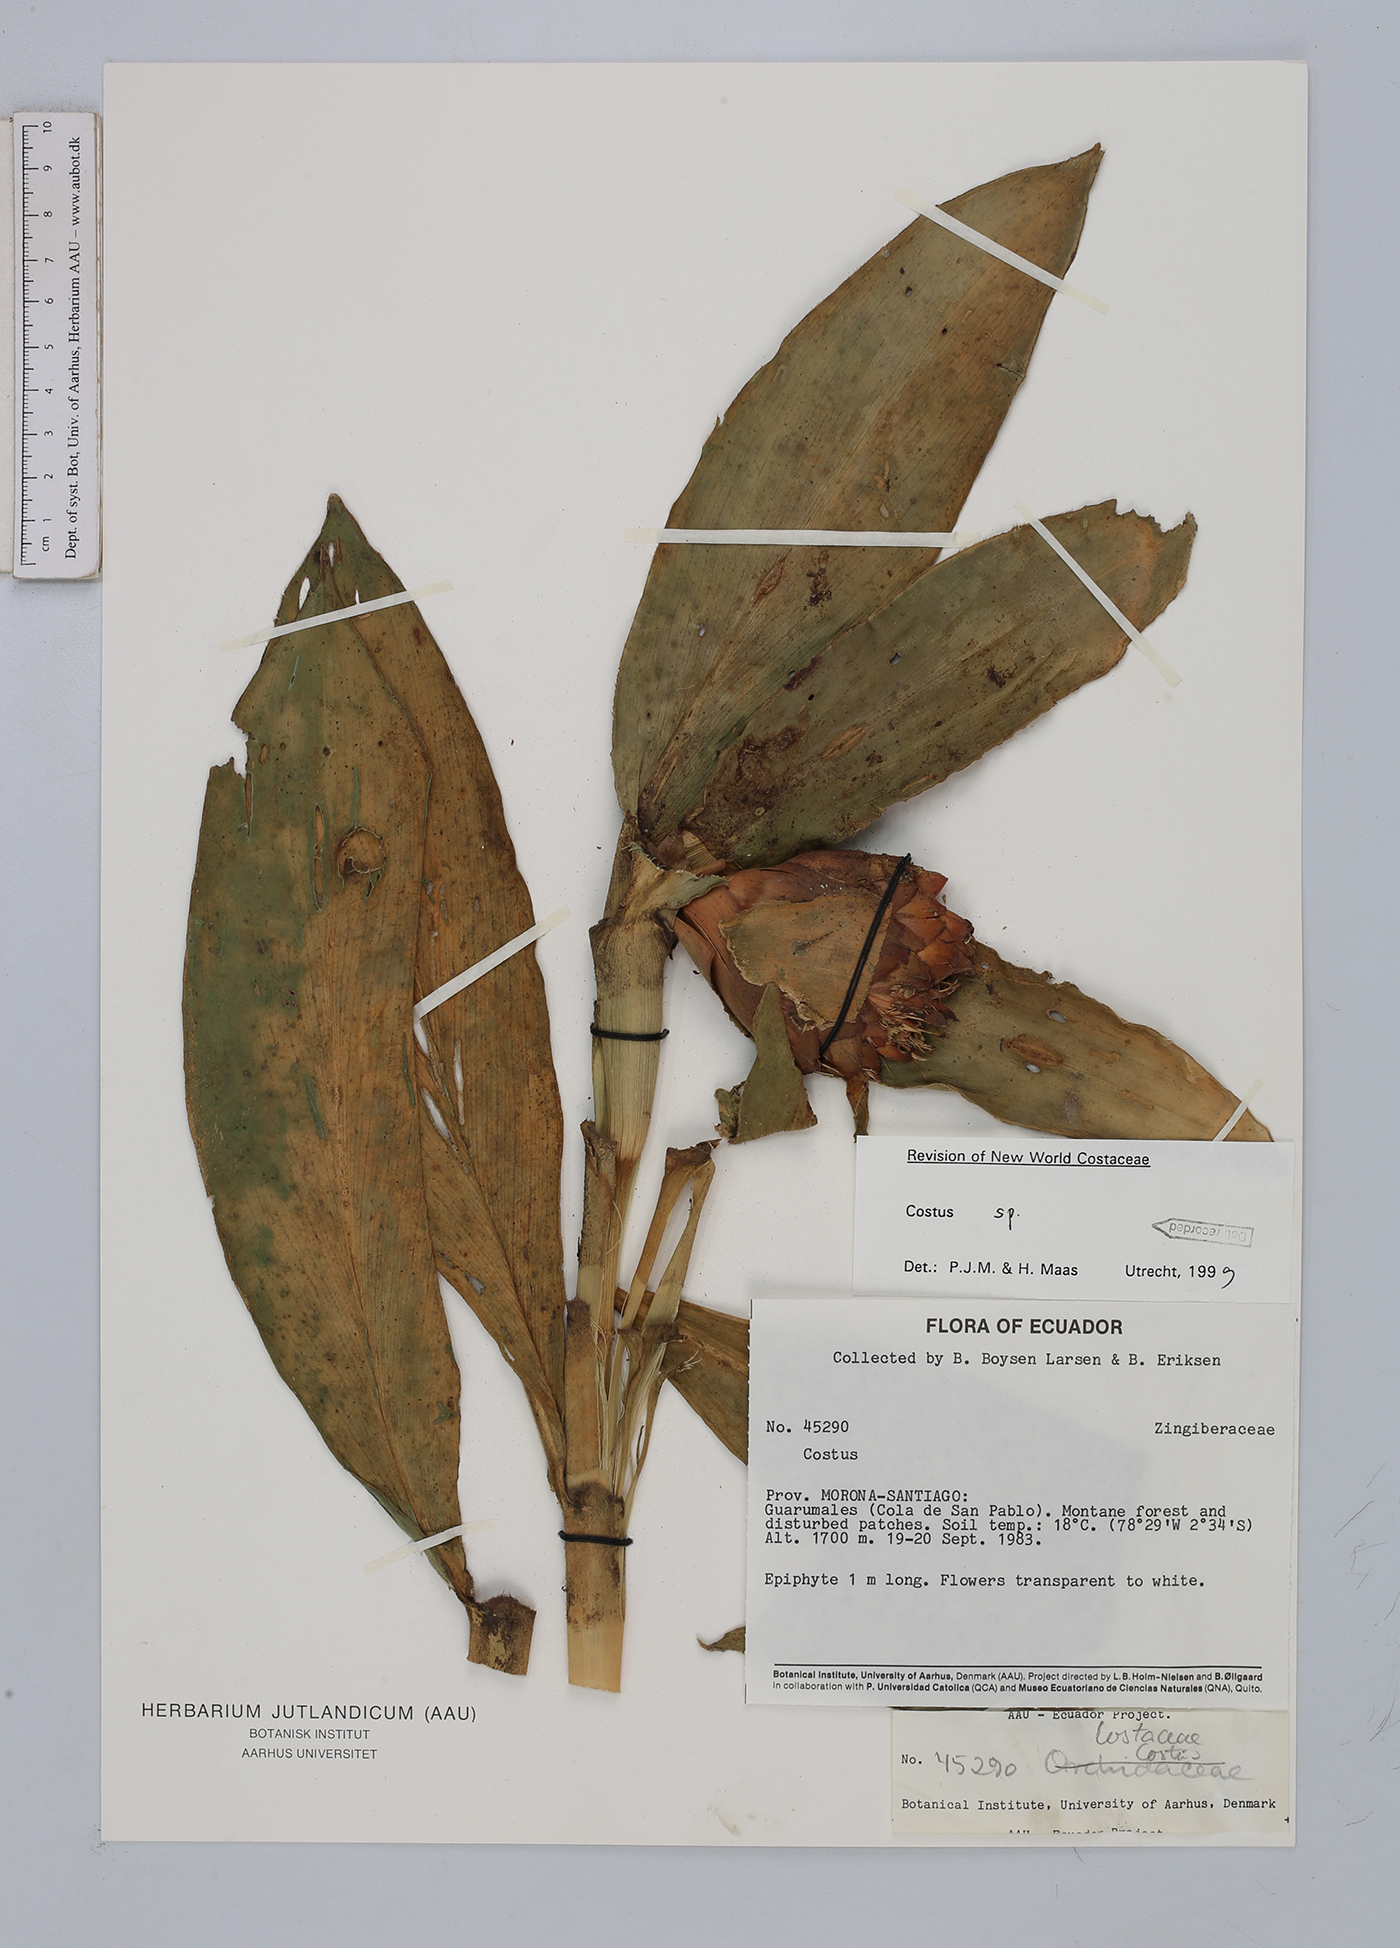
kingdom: Plantae
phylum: Tracheophyta
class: Liliopsida
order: Zingiberales
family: Costaceae
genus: Costus
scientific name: Costus
